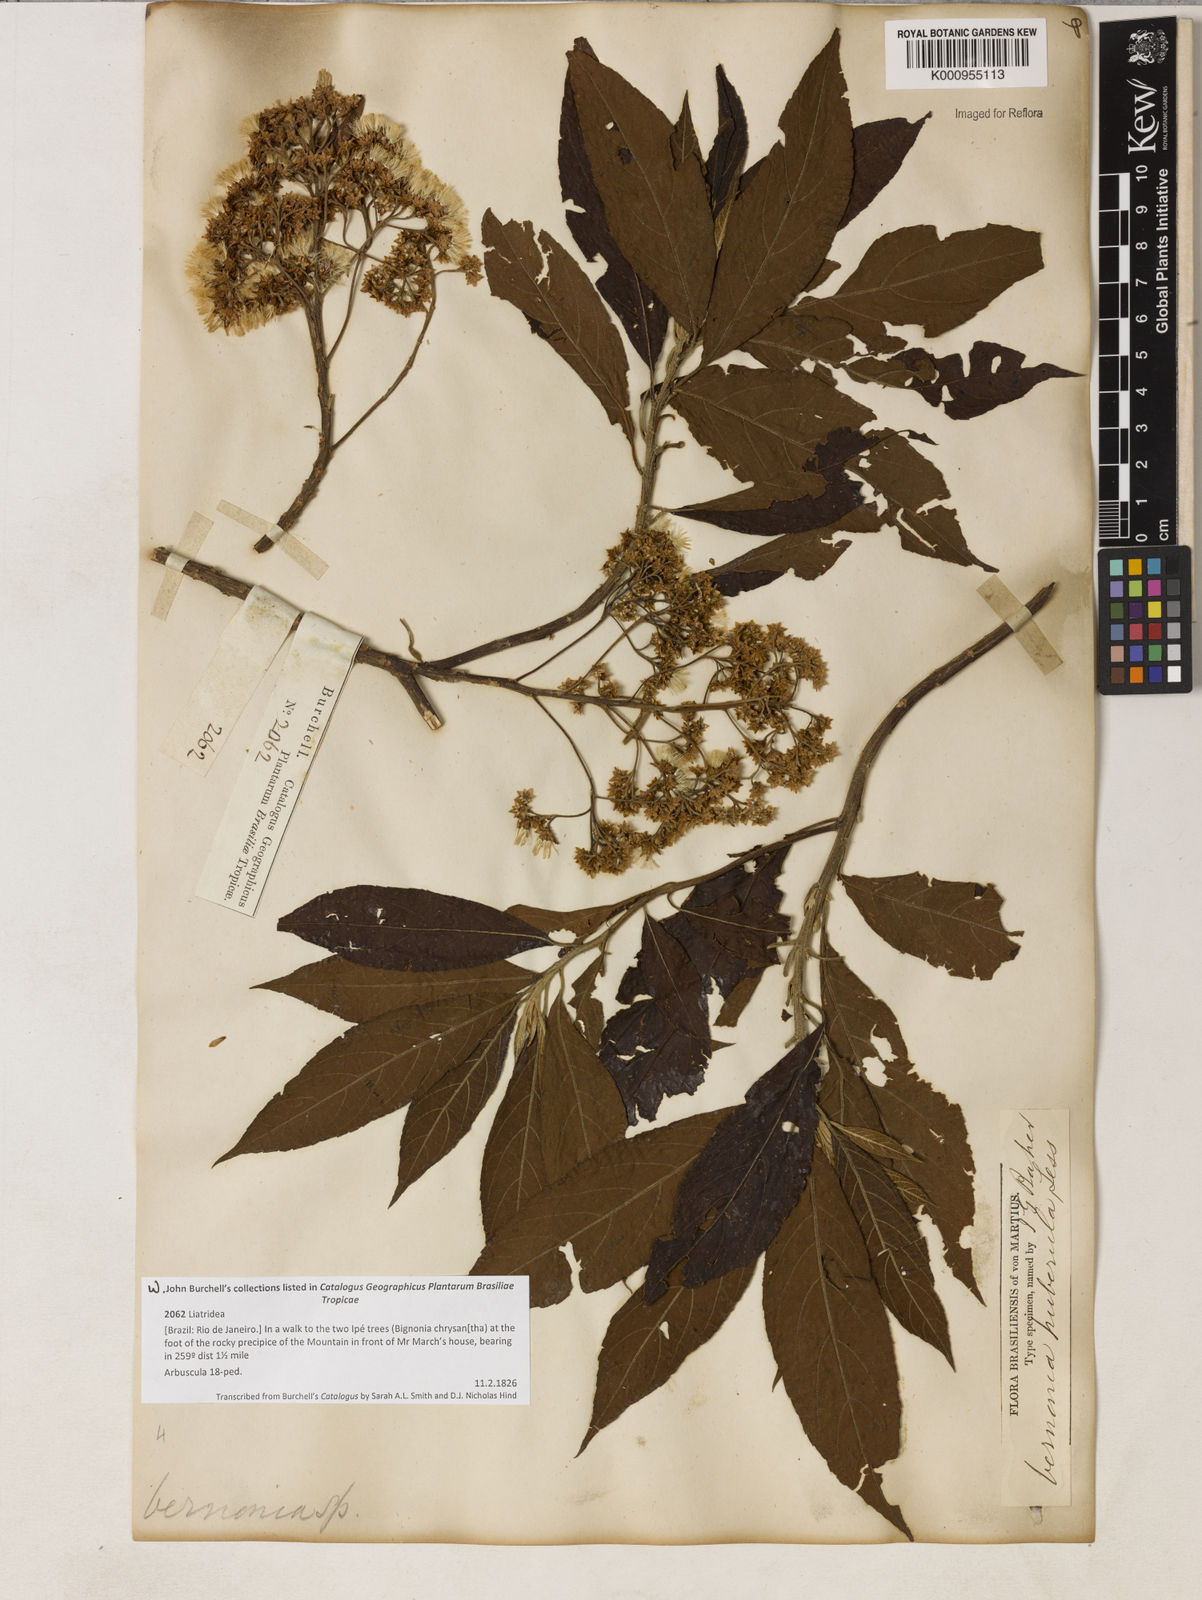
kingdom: Plantae
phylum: Tracheophyta
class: Magnoliopsida
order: Asterales
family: Asteraceae
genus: Vernonanthura
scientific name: Vernonanthura puberula
